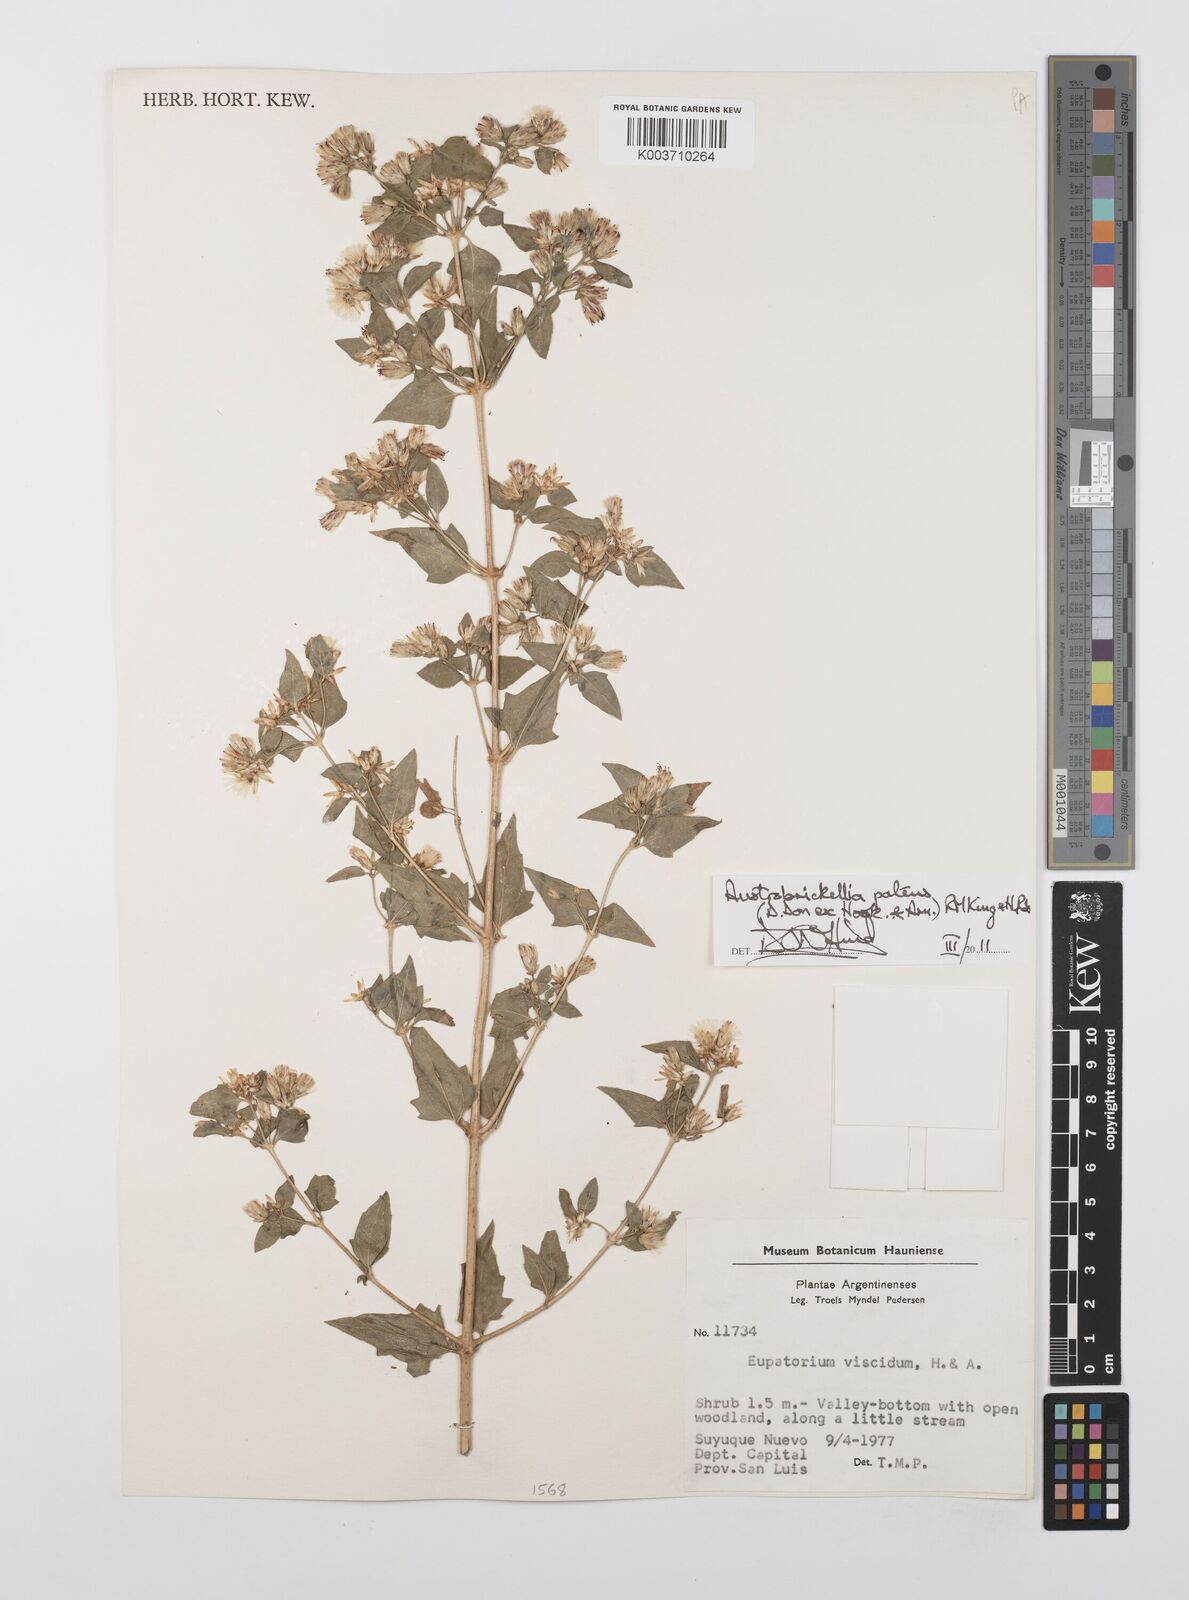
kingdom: Plantae
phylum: Tracheophyta
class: Magnoliopsida
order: Asterales
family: Asteraceae
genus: Austrobrickellia
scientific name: Austrobrickellia patens
